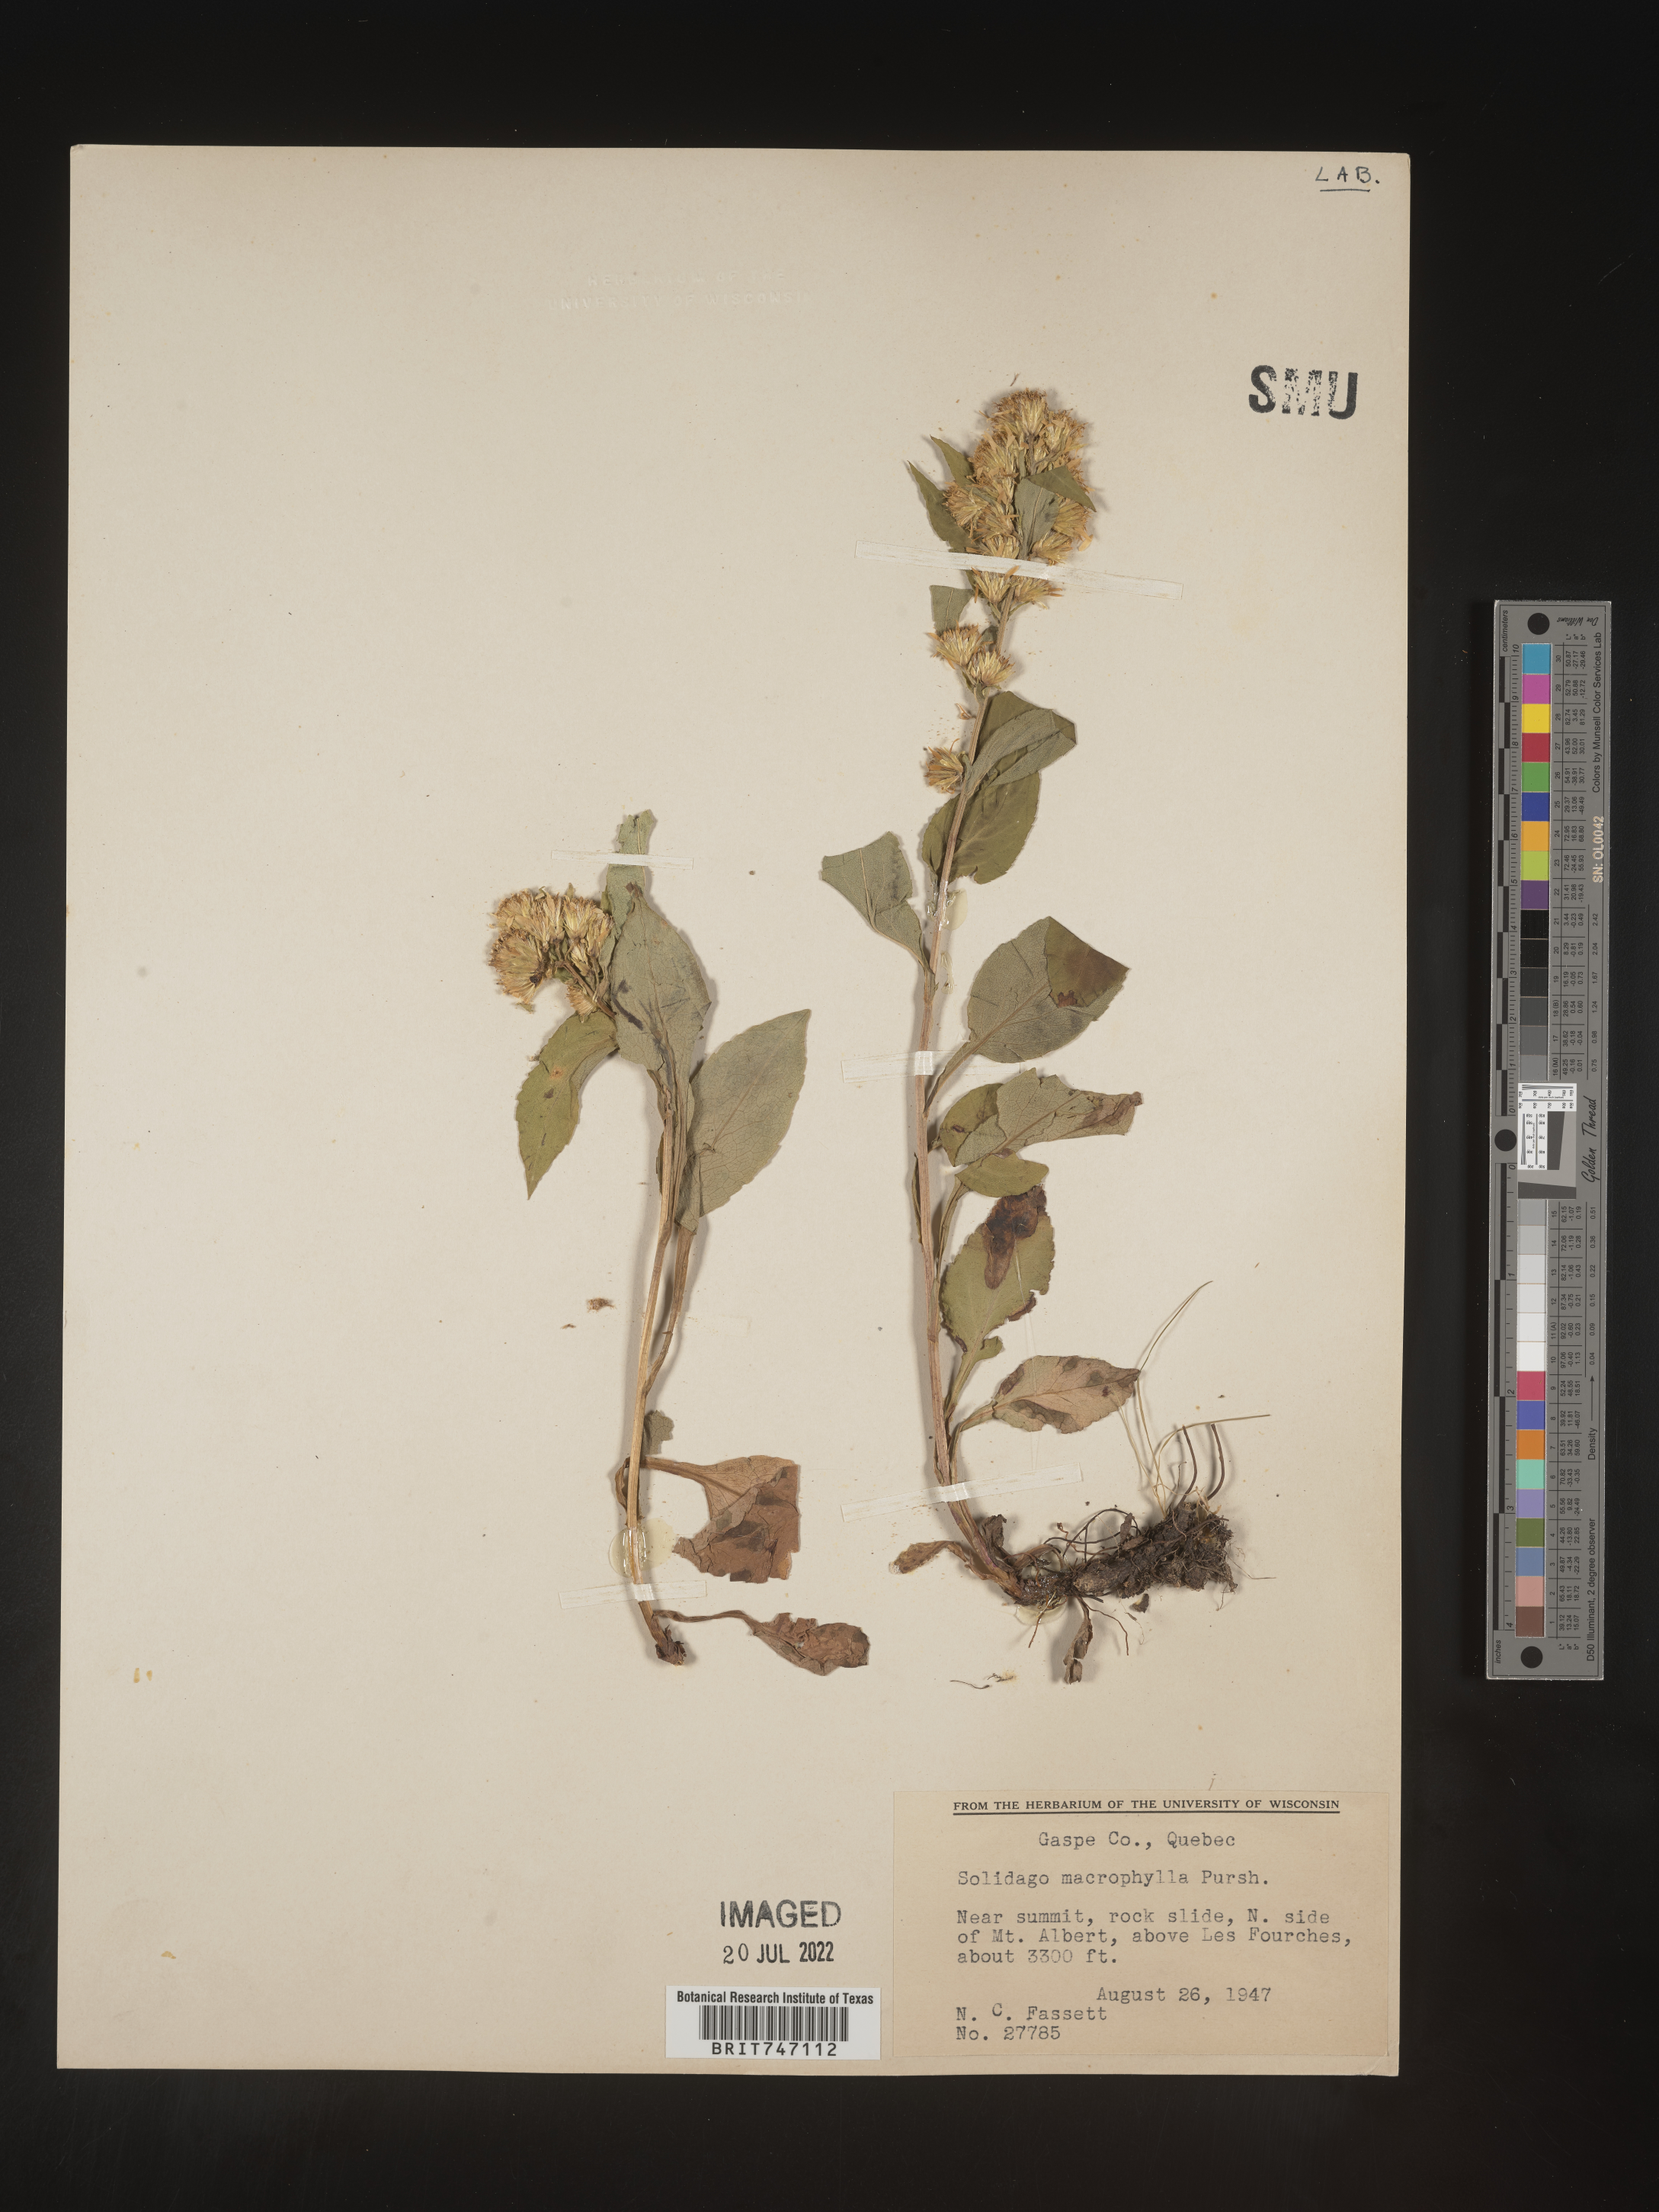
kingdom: Plantae
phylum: Tracheophyta
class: Magnoliopsida
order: Asterales
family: Asteraceae
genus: Solidago
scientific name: Solidago macrophylla
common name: Large-leaved goldenrod
